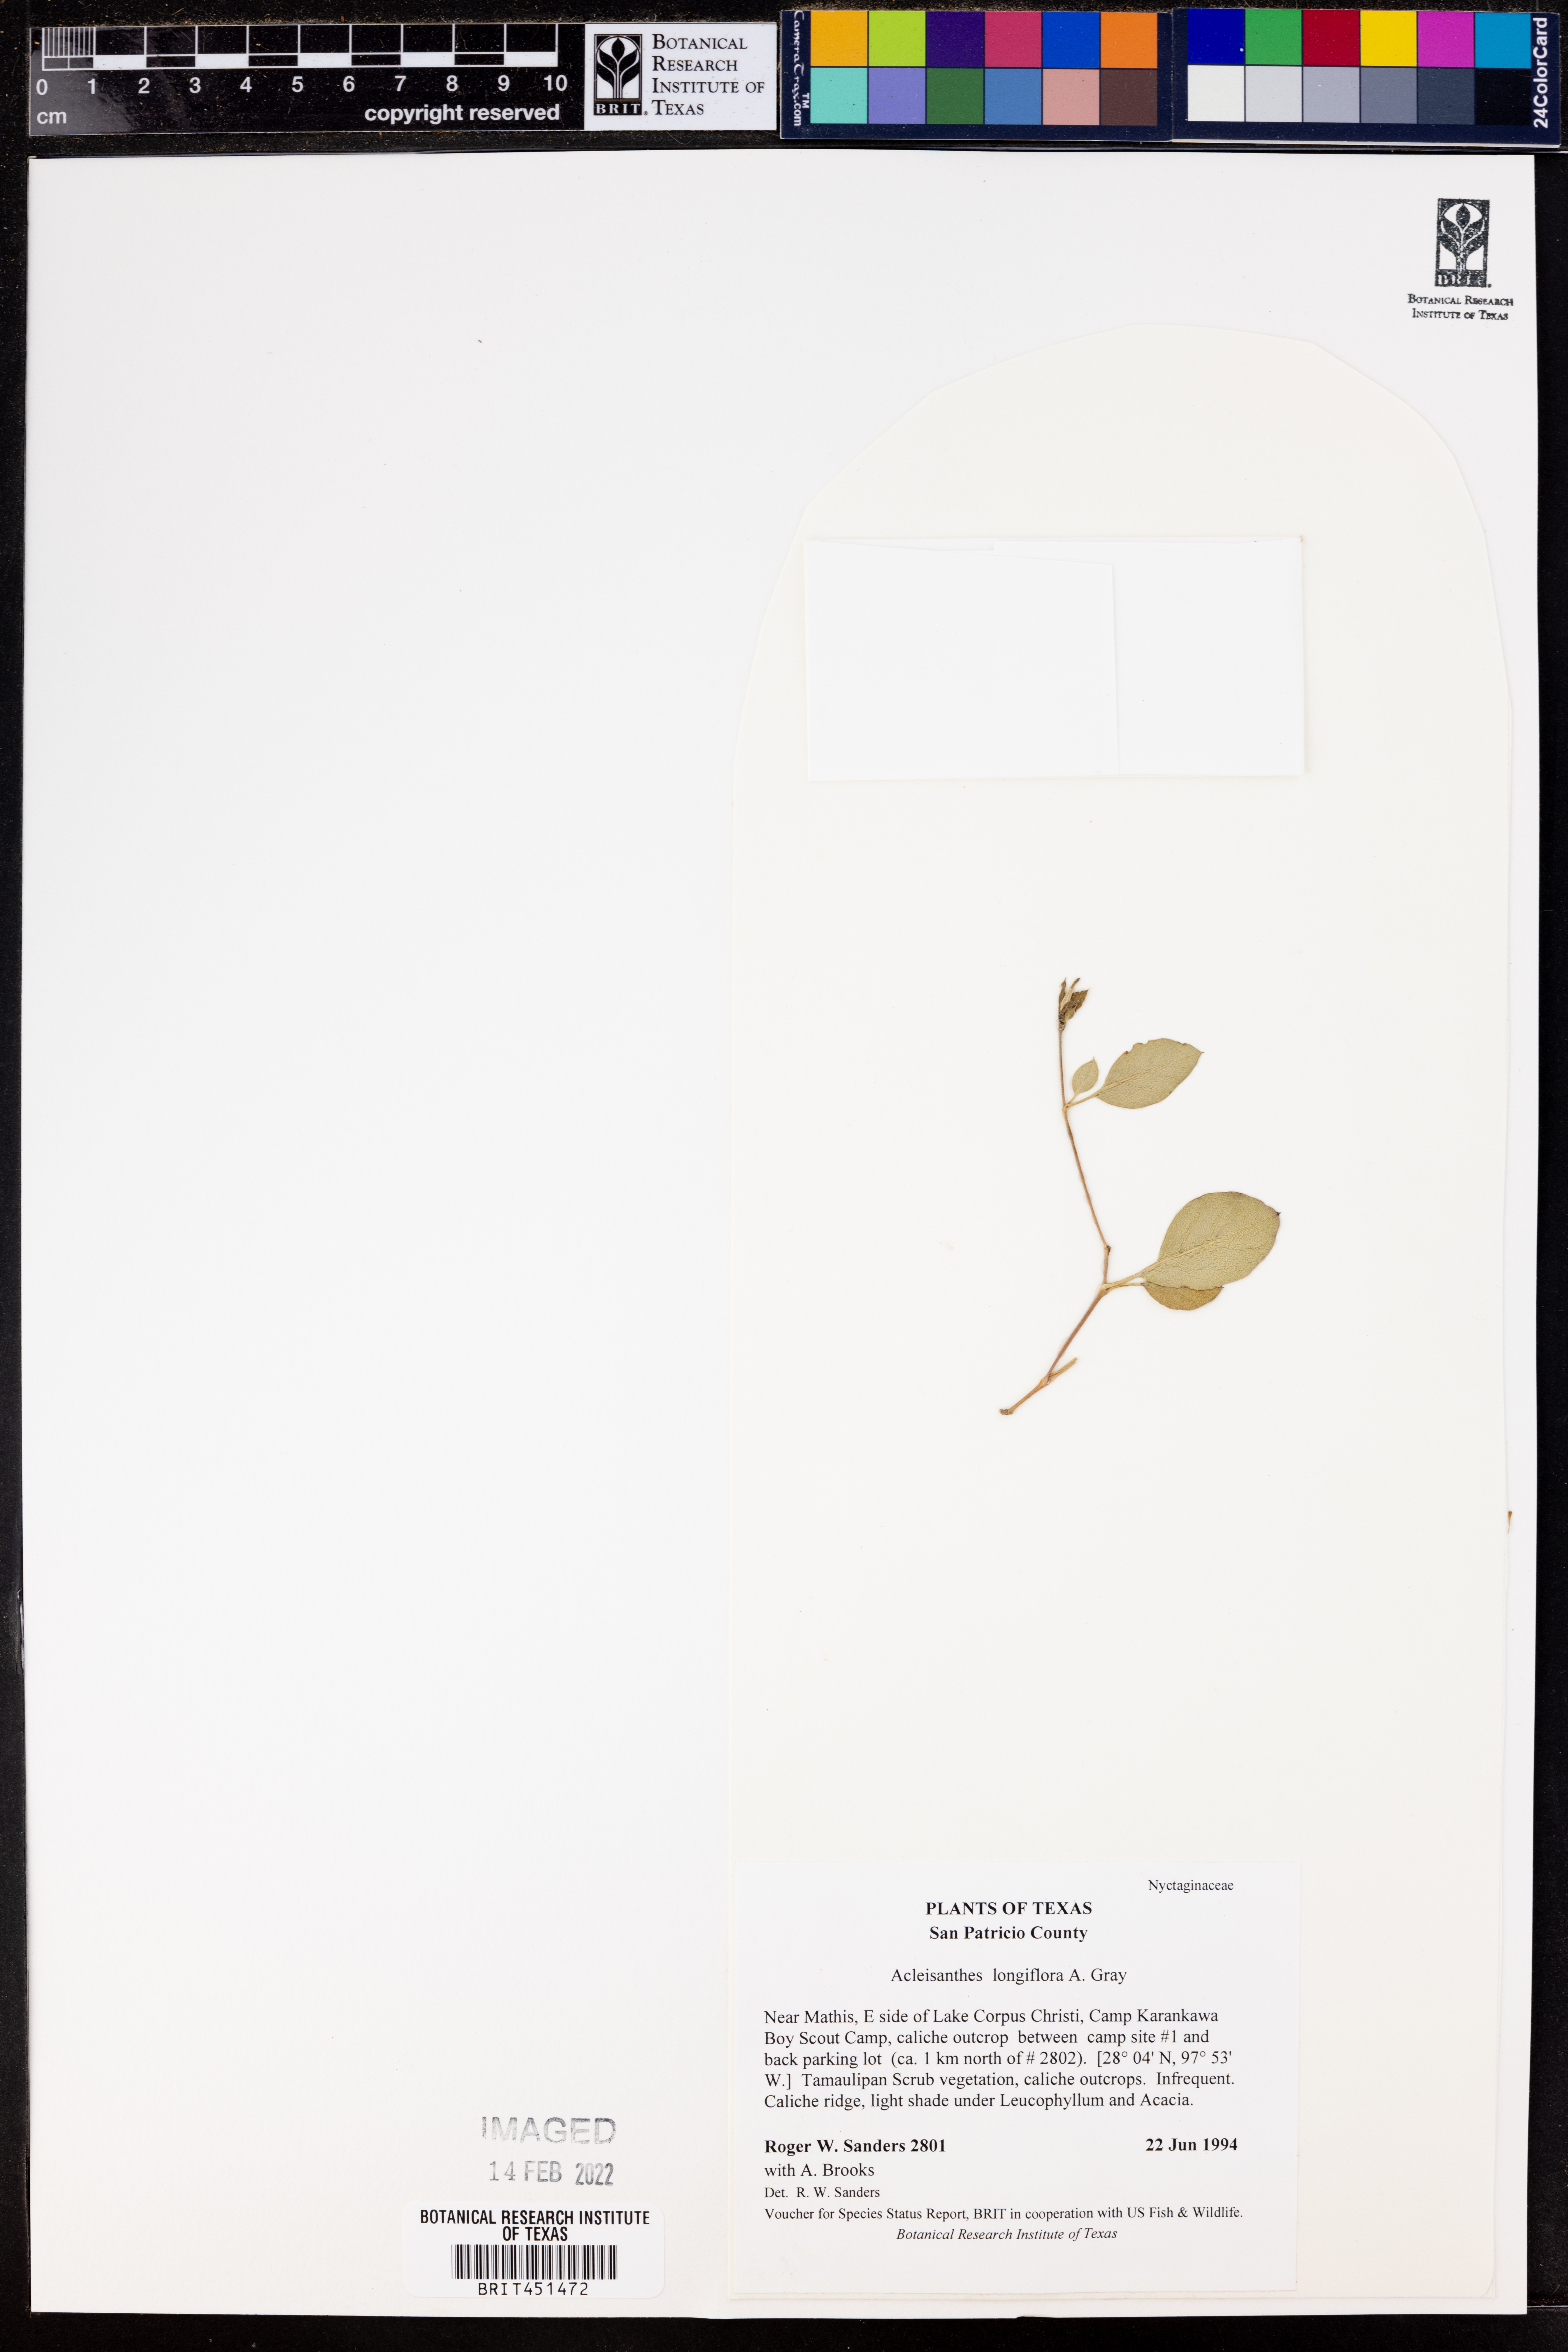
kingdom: Plantae
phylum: Tracheophyta
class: Magnoliopsida
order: Caryophyllales
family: Nyctaginaceae
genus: Acleisanthes
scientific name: Acleisanthes longiflora
